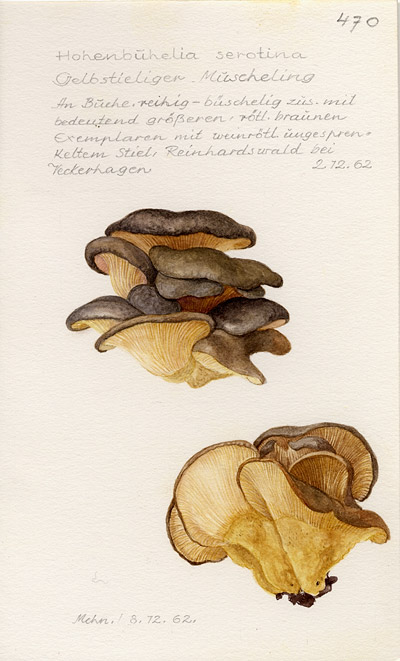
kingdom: Fungi
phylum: Basidiomycota
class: Agaricomycetes
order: Agaricales
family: Sarcomyxaceae
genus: Sarcomyxa
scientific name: Sarcomyxa serotina
